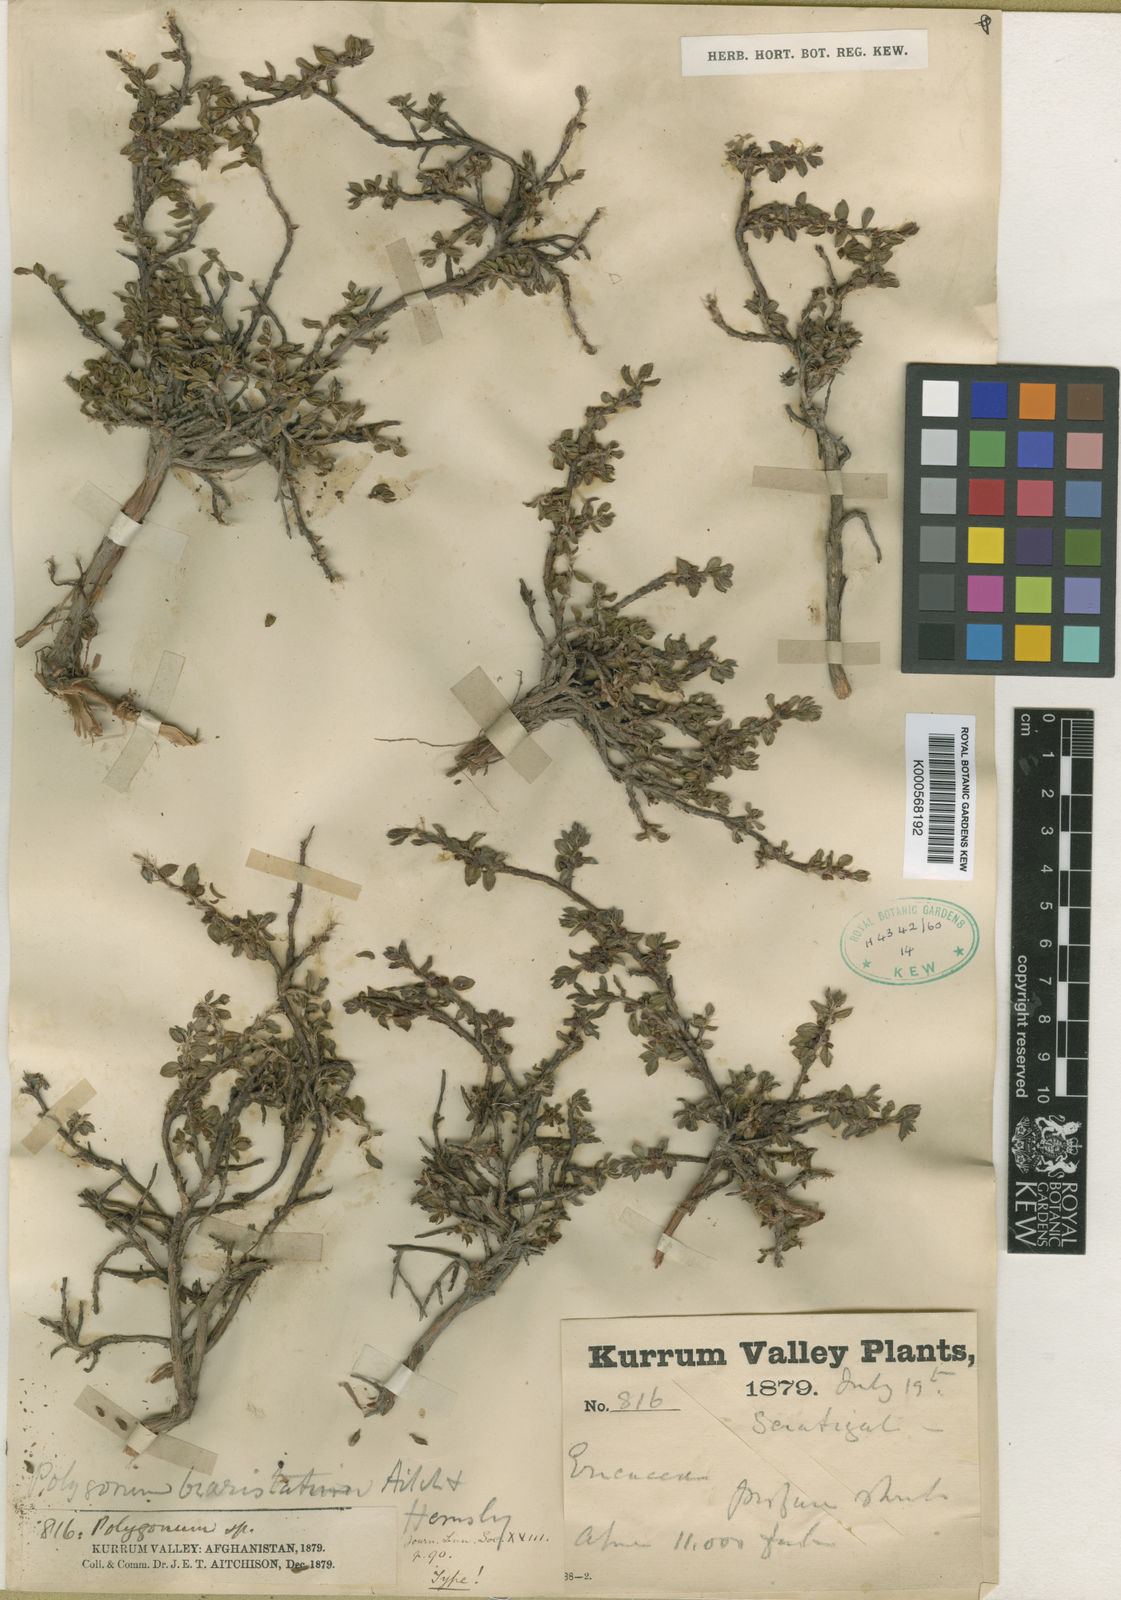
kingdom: Plantae
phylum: Tracheophyta
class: Magnoliopsida
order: Caryophyllales
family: Polygonaceae
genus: Polygonum
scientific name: Polygonum biaristatum
